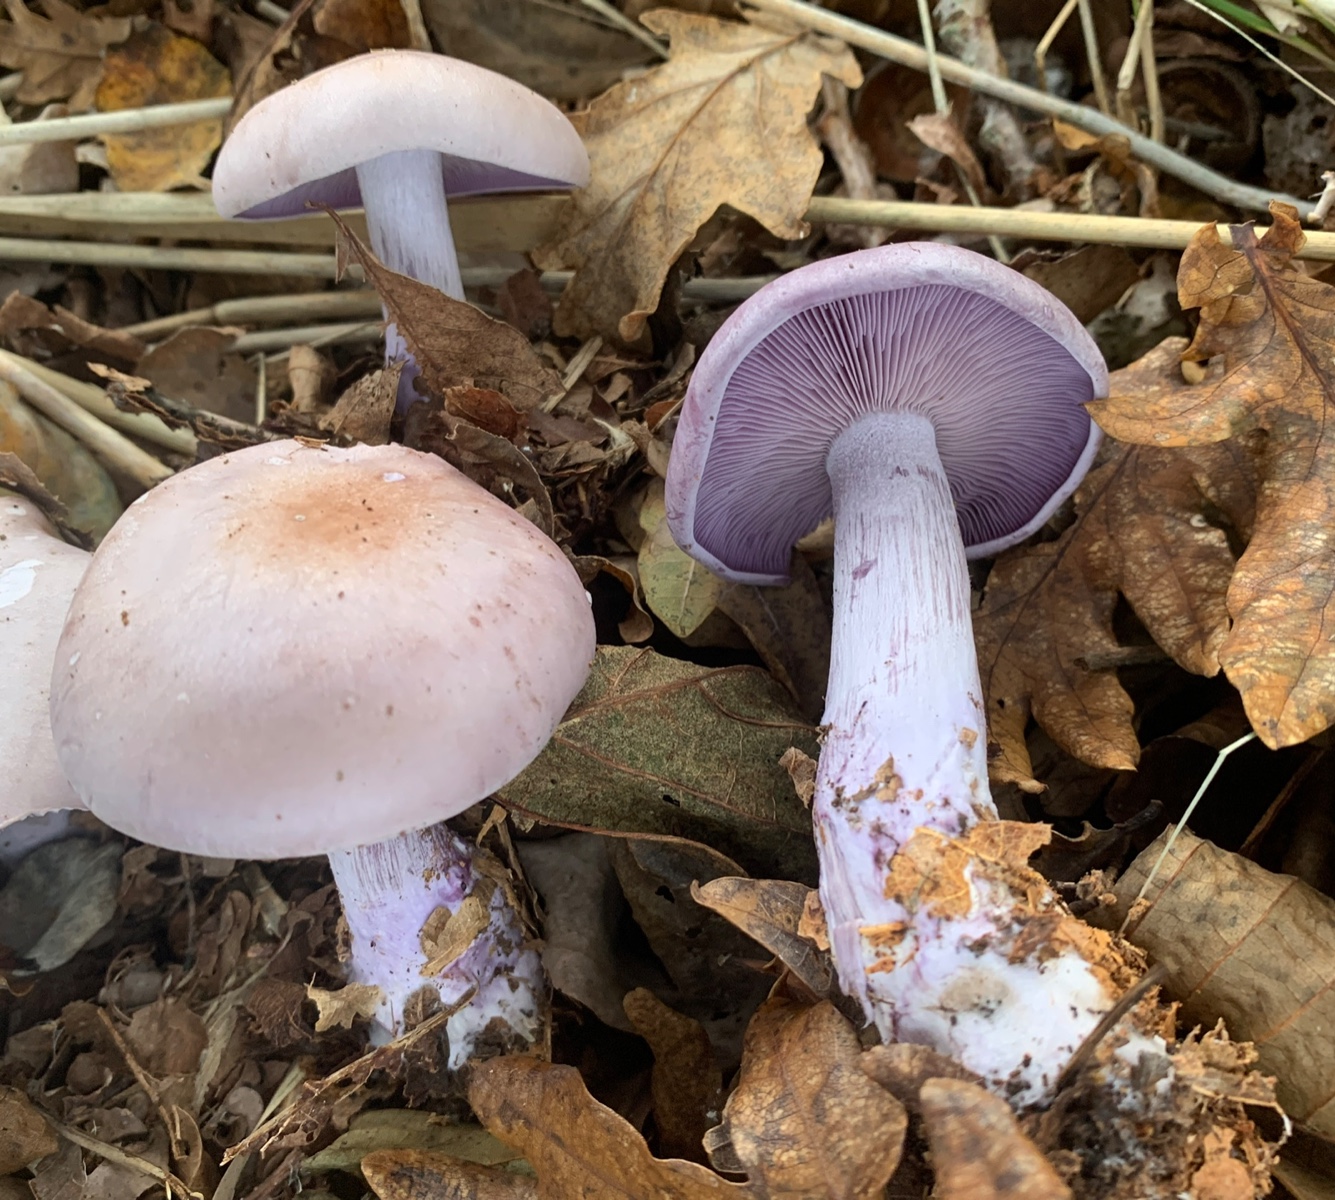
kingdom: Fungi
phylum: Basidiomycota
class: Agaricomycetes
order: Agaricales
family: Tricholomataceae
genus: Lepista
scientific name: Lepista nuda
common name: violet hekseringshat
